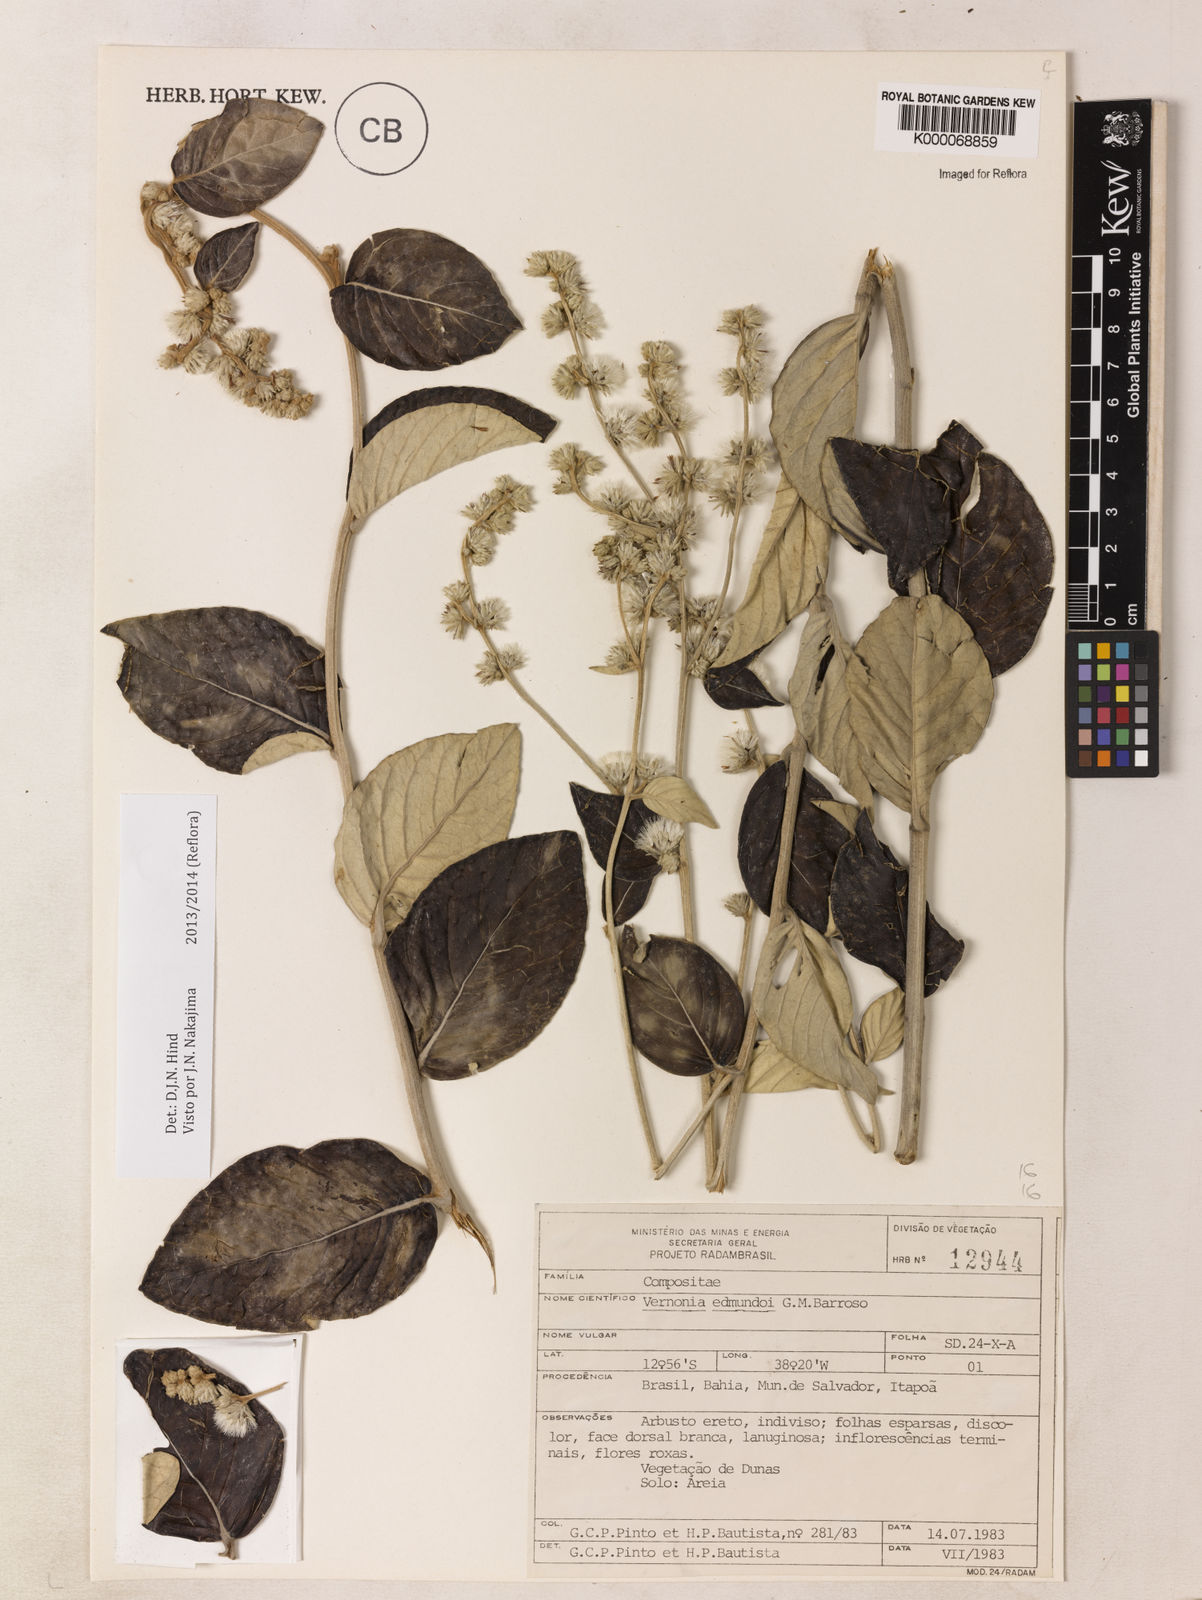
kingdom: Plantae
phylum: Tracheophyta
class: Magnoliopsida
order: Asterales
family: Asteraceae
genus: Lepidaploa
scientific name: Lepidaploa edmundoi
